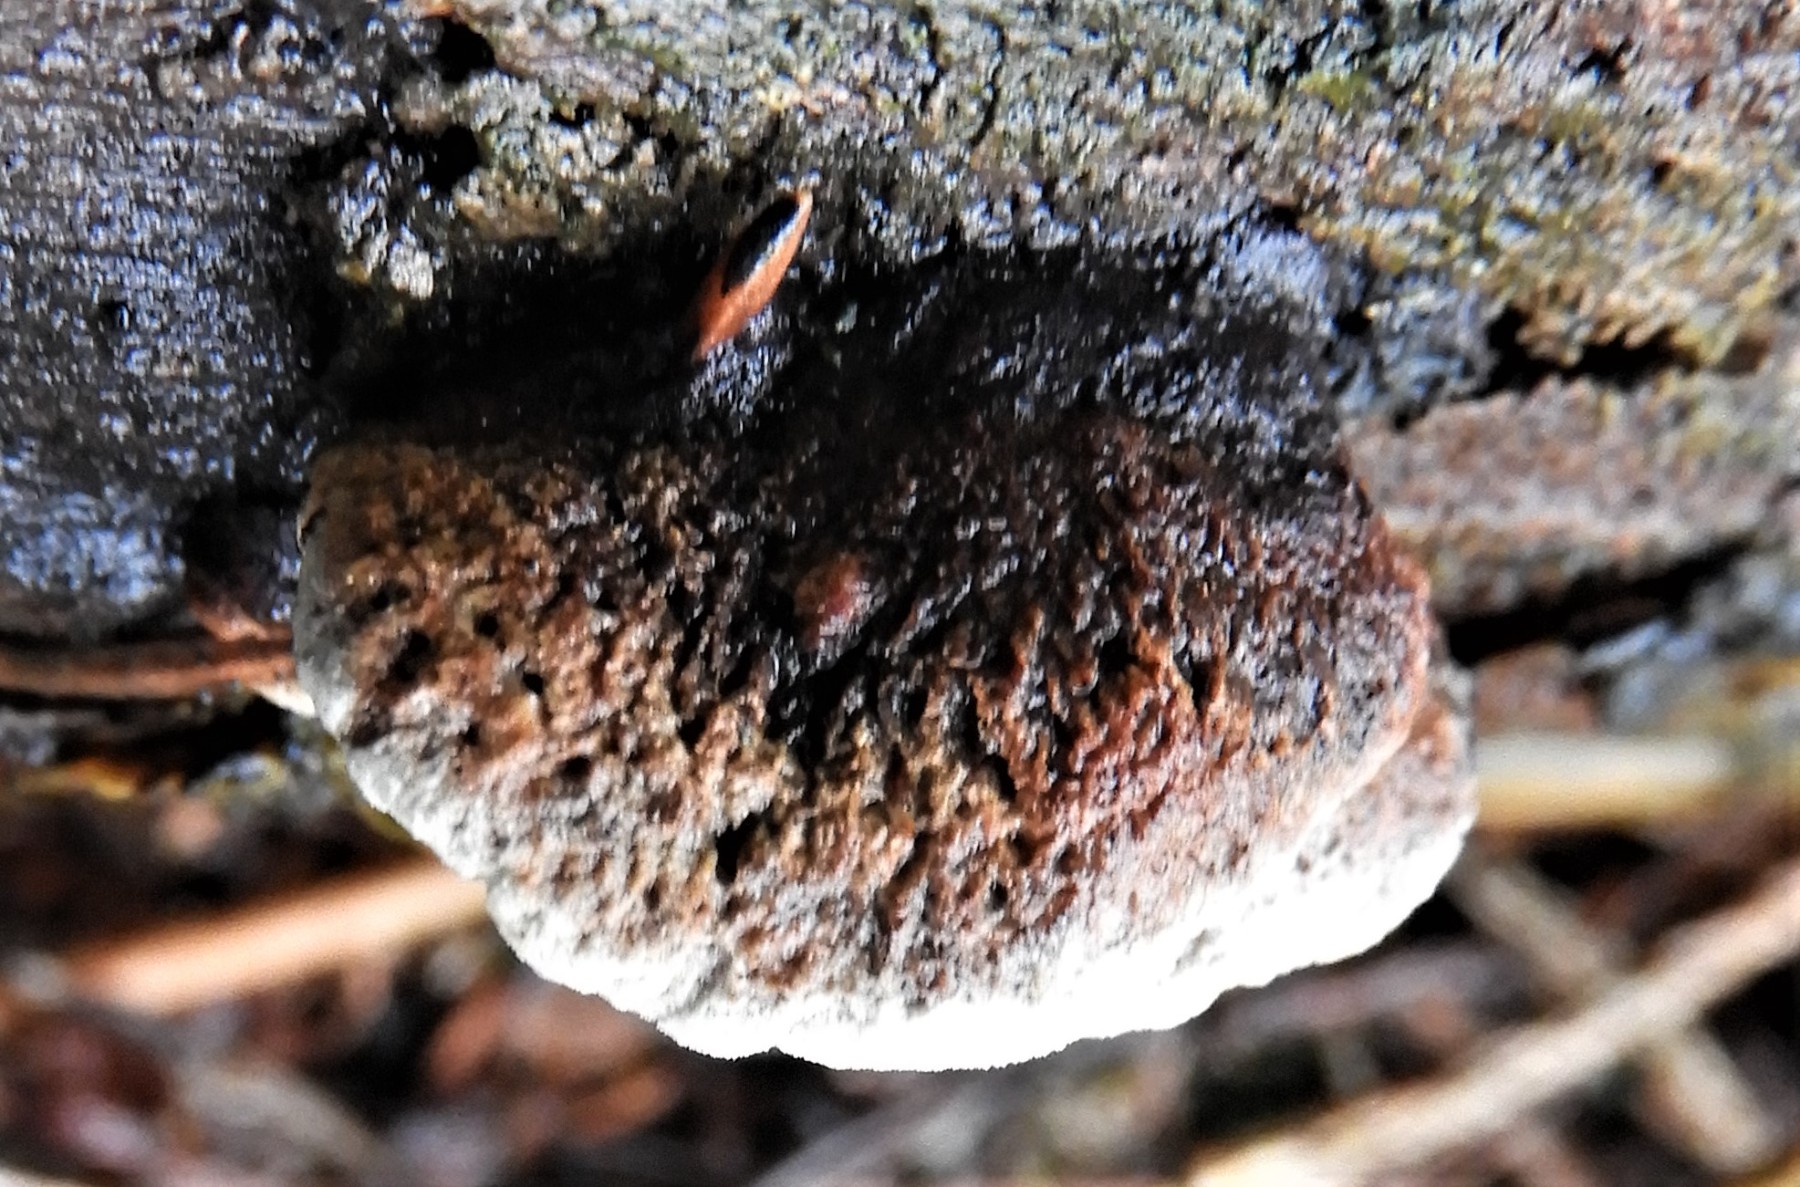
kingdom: Fungi
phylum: Basidiomycota
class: Agaricomycetes
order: Polyporales
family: Incrustoporiaceae
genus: Skeletocutis
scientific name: Skeletocutis nemoralis
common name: stor krystalporesvamp
